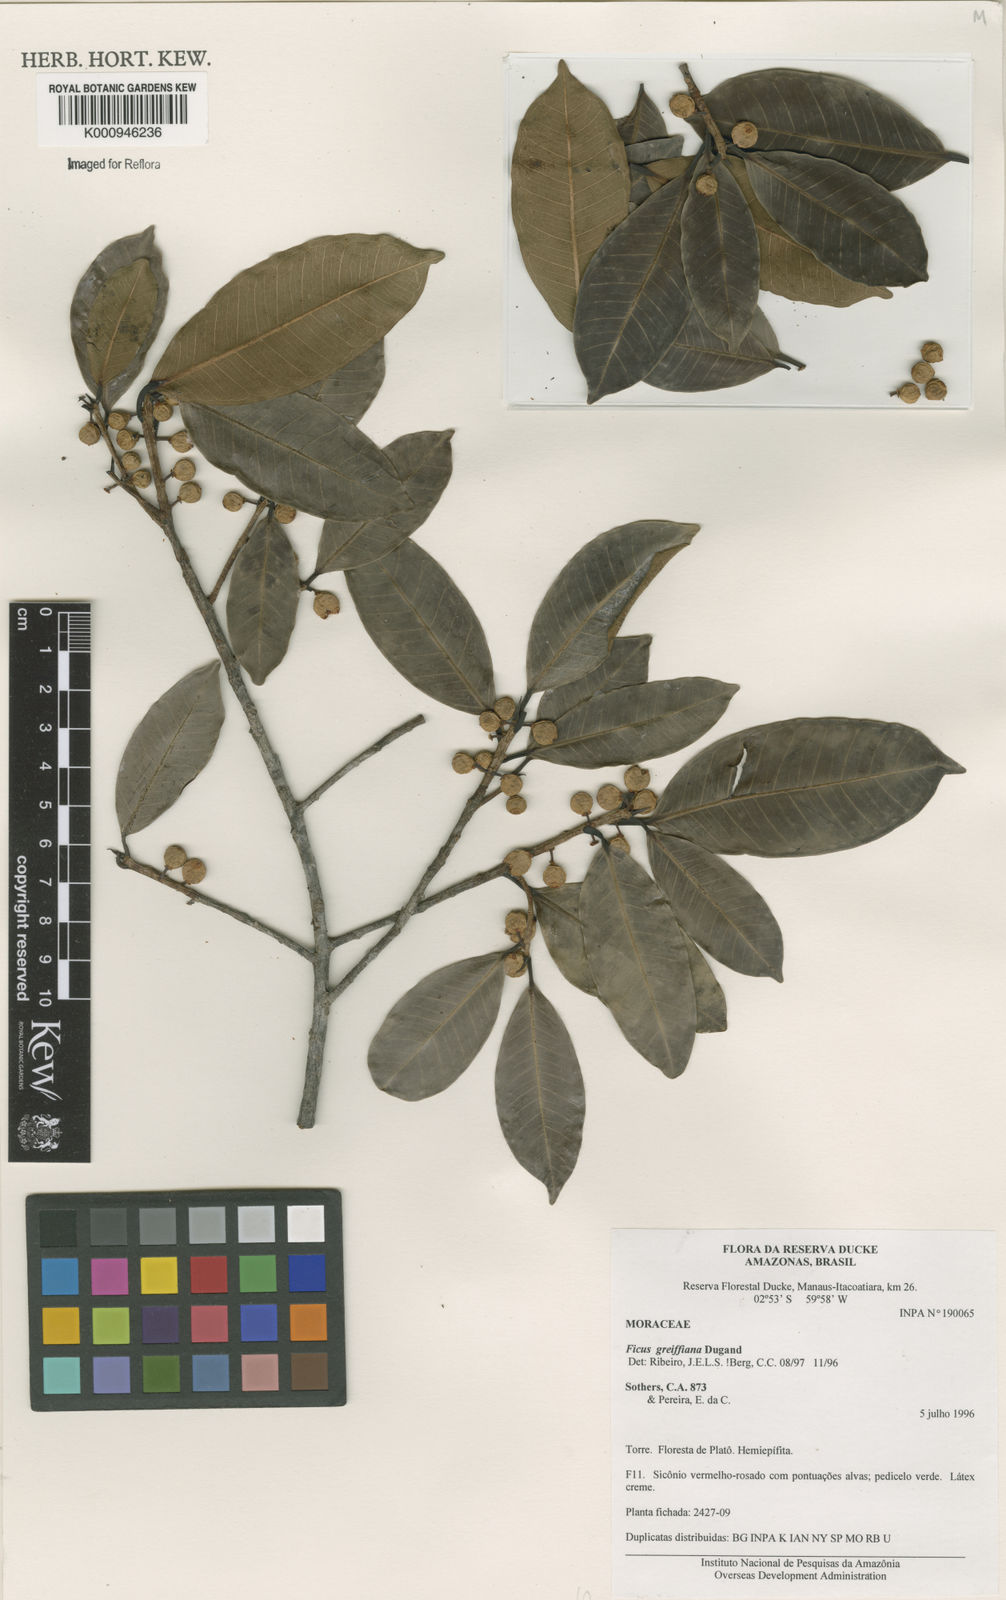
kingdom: Plantae
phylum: Tracheophyta
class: Magnoliopsida
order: Rosales
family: Moraceae
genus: Ficus
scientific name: Ficus americana
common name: Jamaican cherry fig
